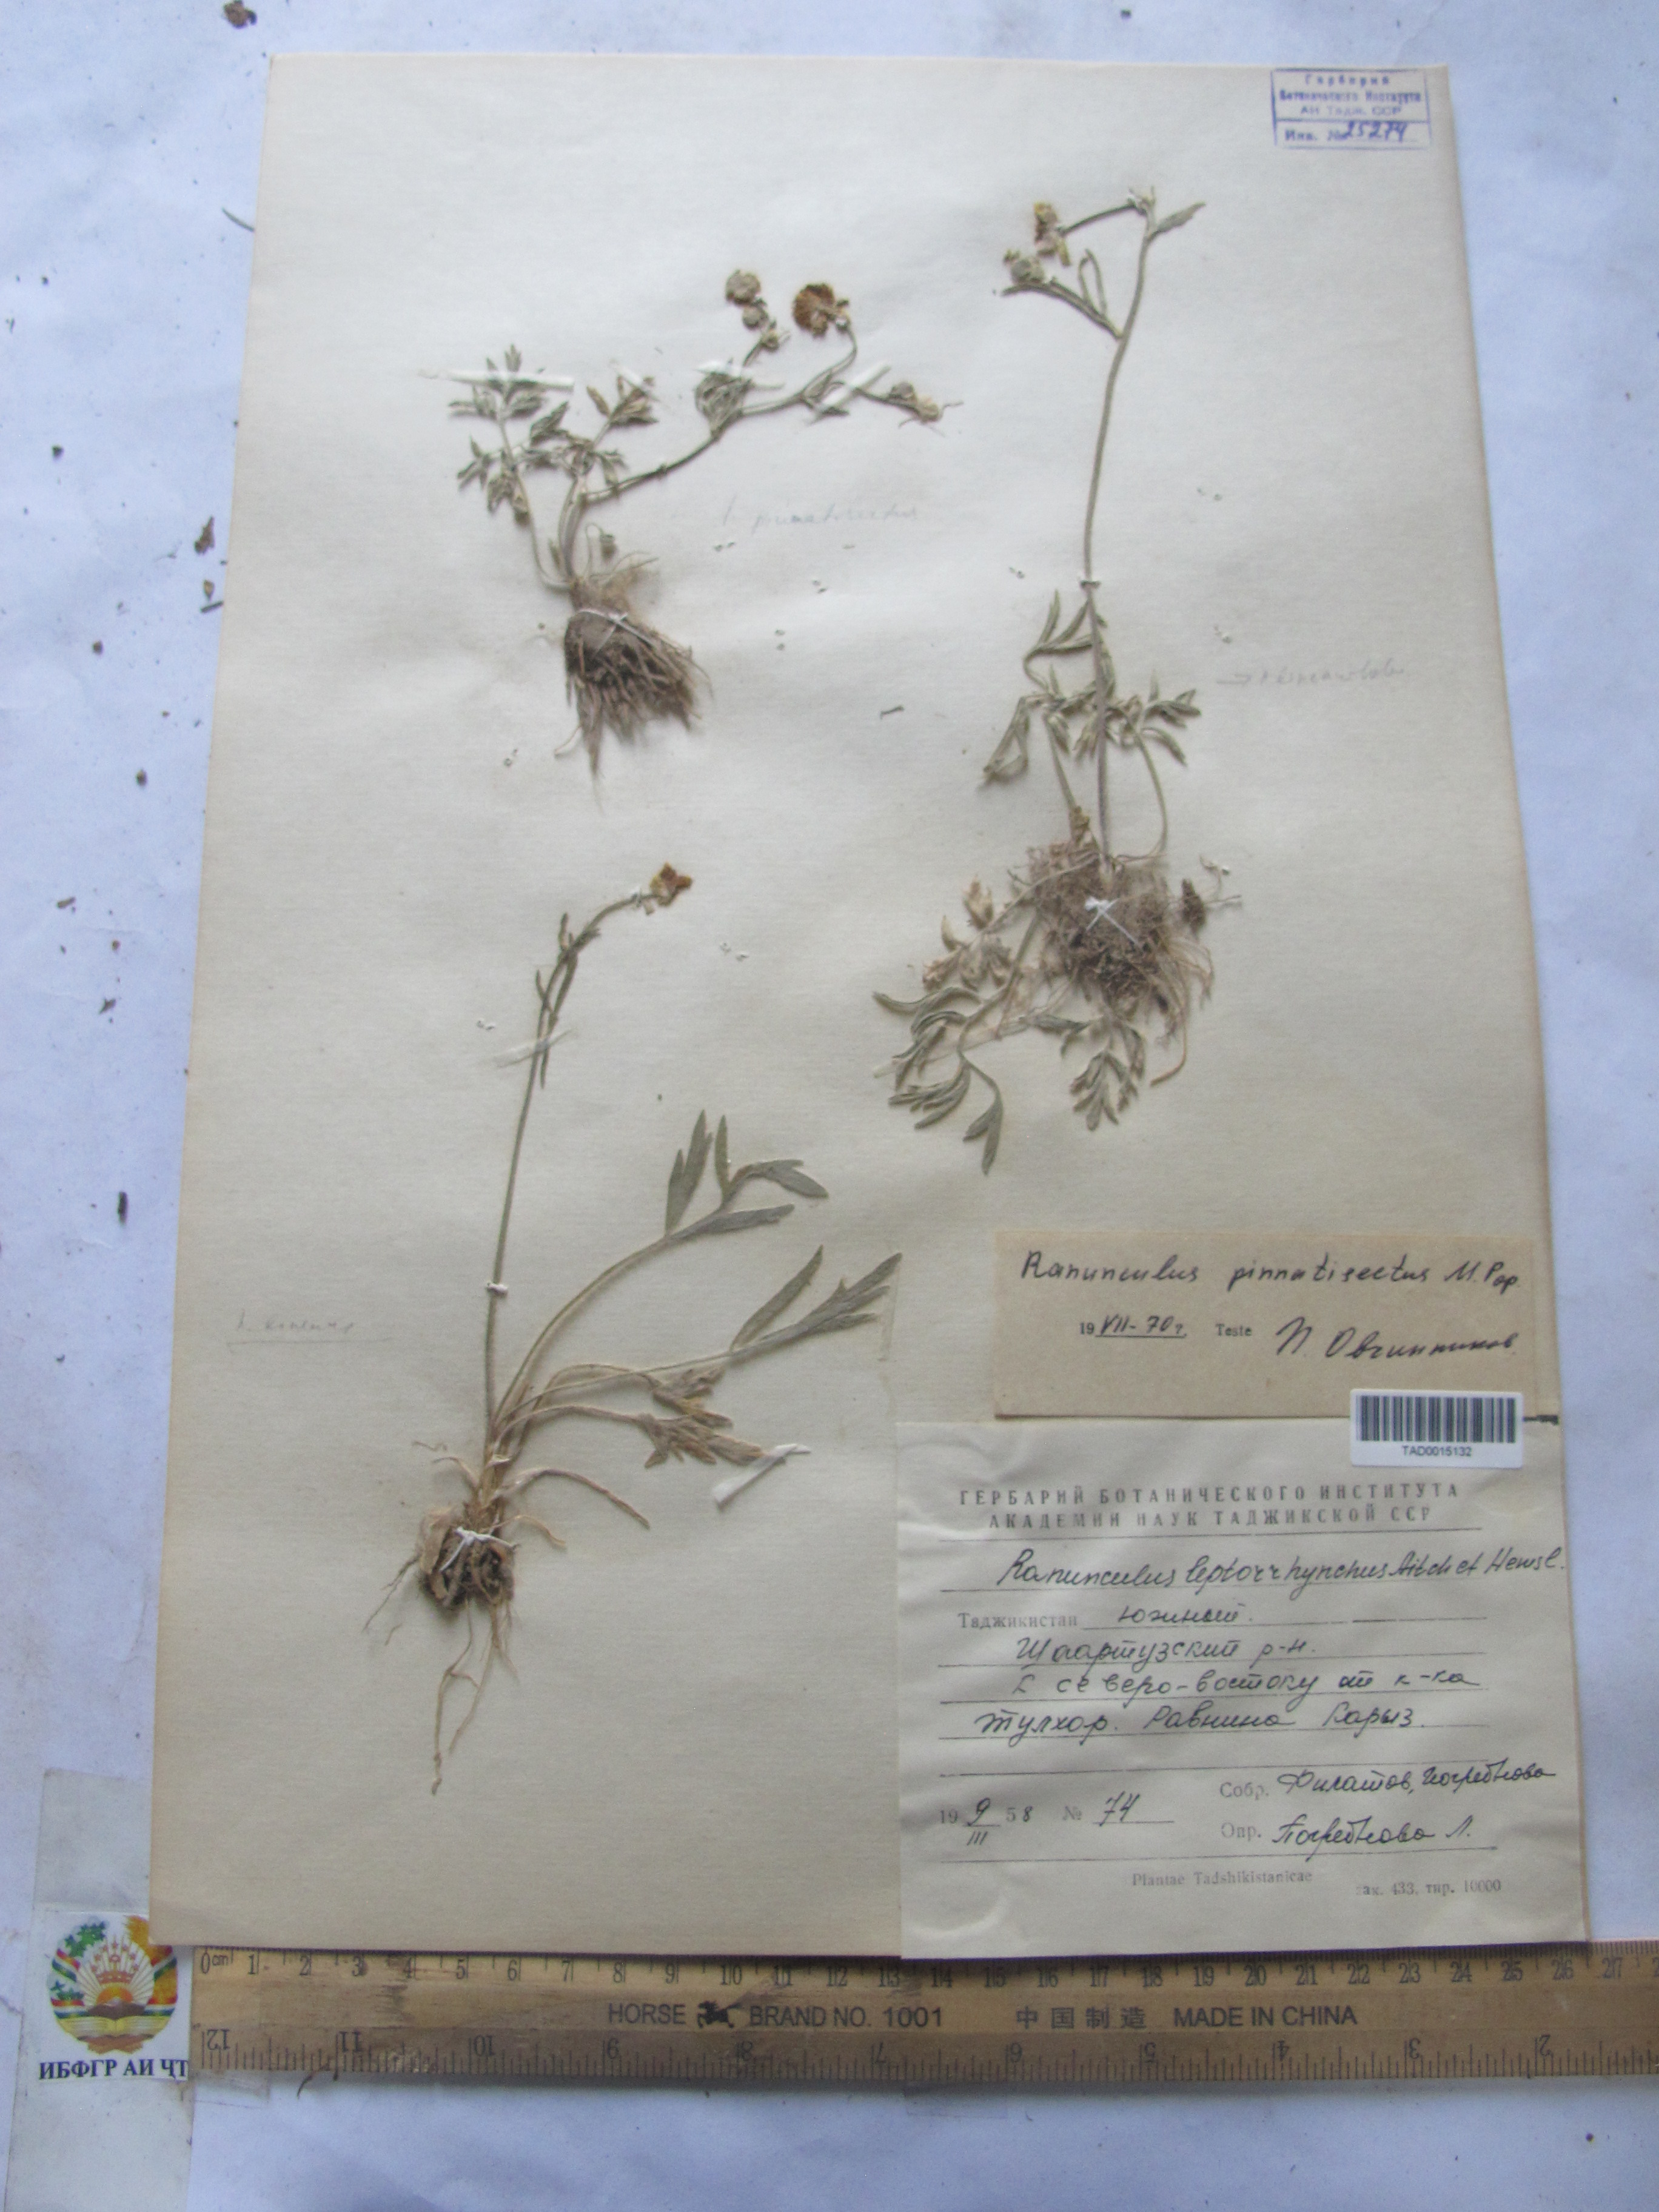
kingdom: Plantae
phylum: Tracheophyta
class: Magnoliopsida
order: Ranunculales
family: Ranunculaceae
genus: Ranunculus
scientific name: Ranunculus pinnatisectus
